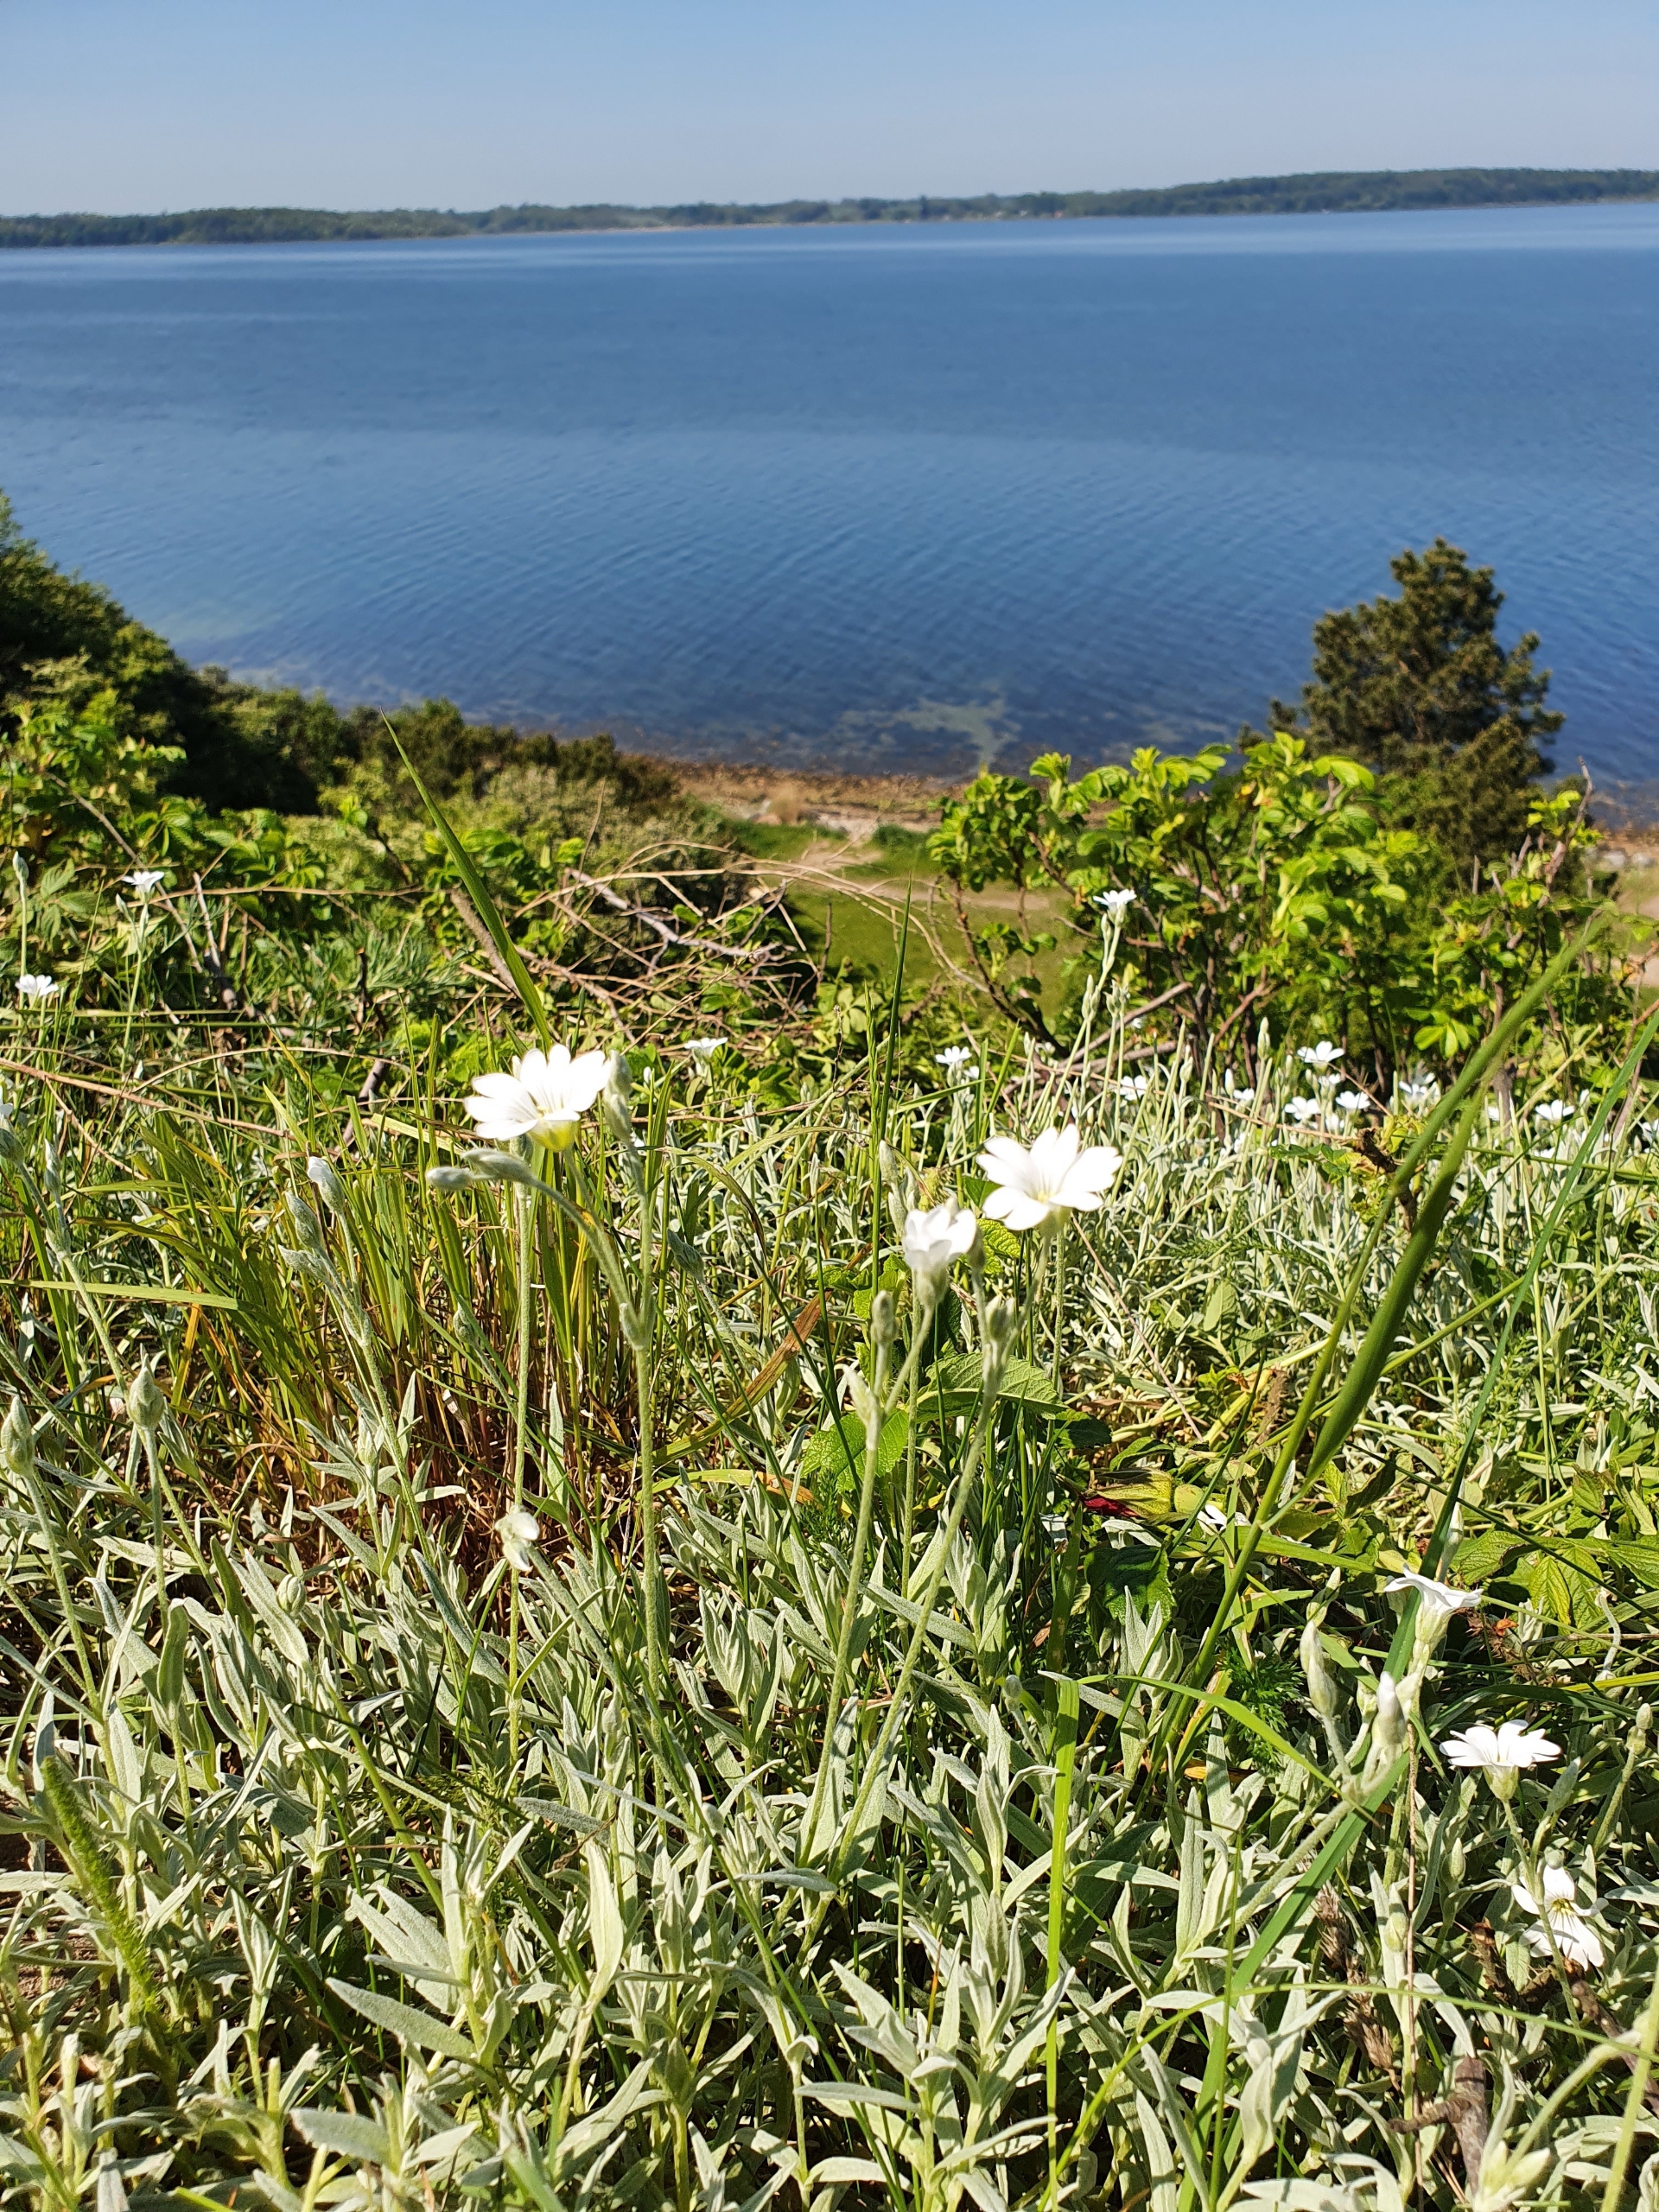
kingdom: Plantae
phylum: Tracheophyta
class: Magnoliopsida
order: Caryophyllales
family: Caryophyllaceae
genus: Cerastium
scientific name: Cerastium tomentosum
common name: Filtet hønsetarm
